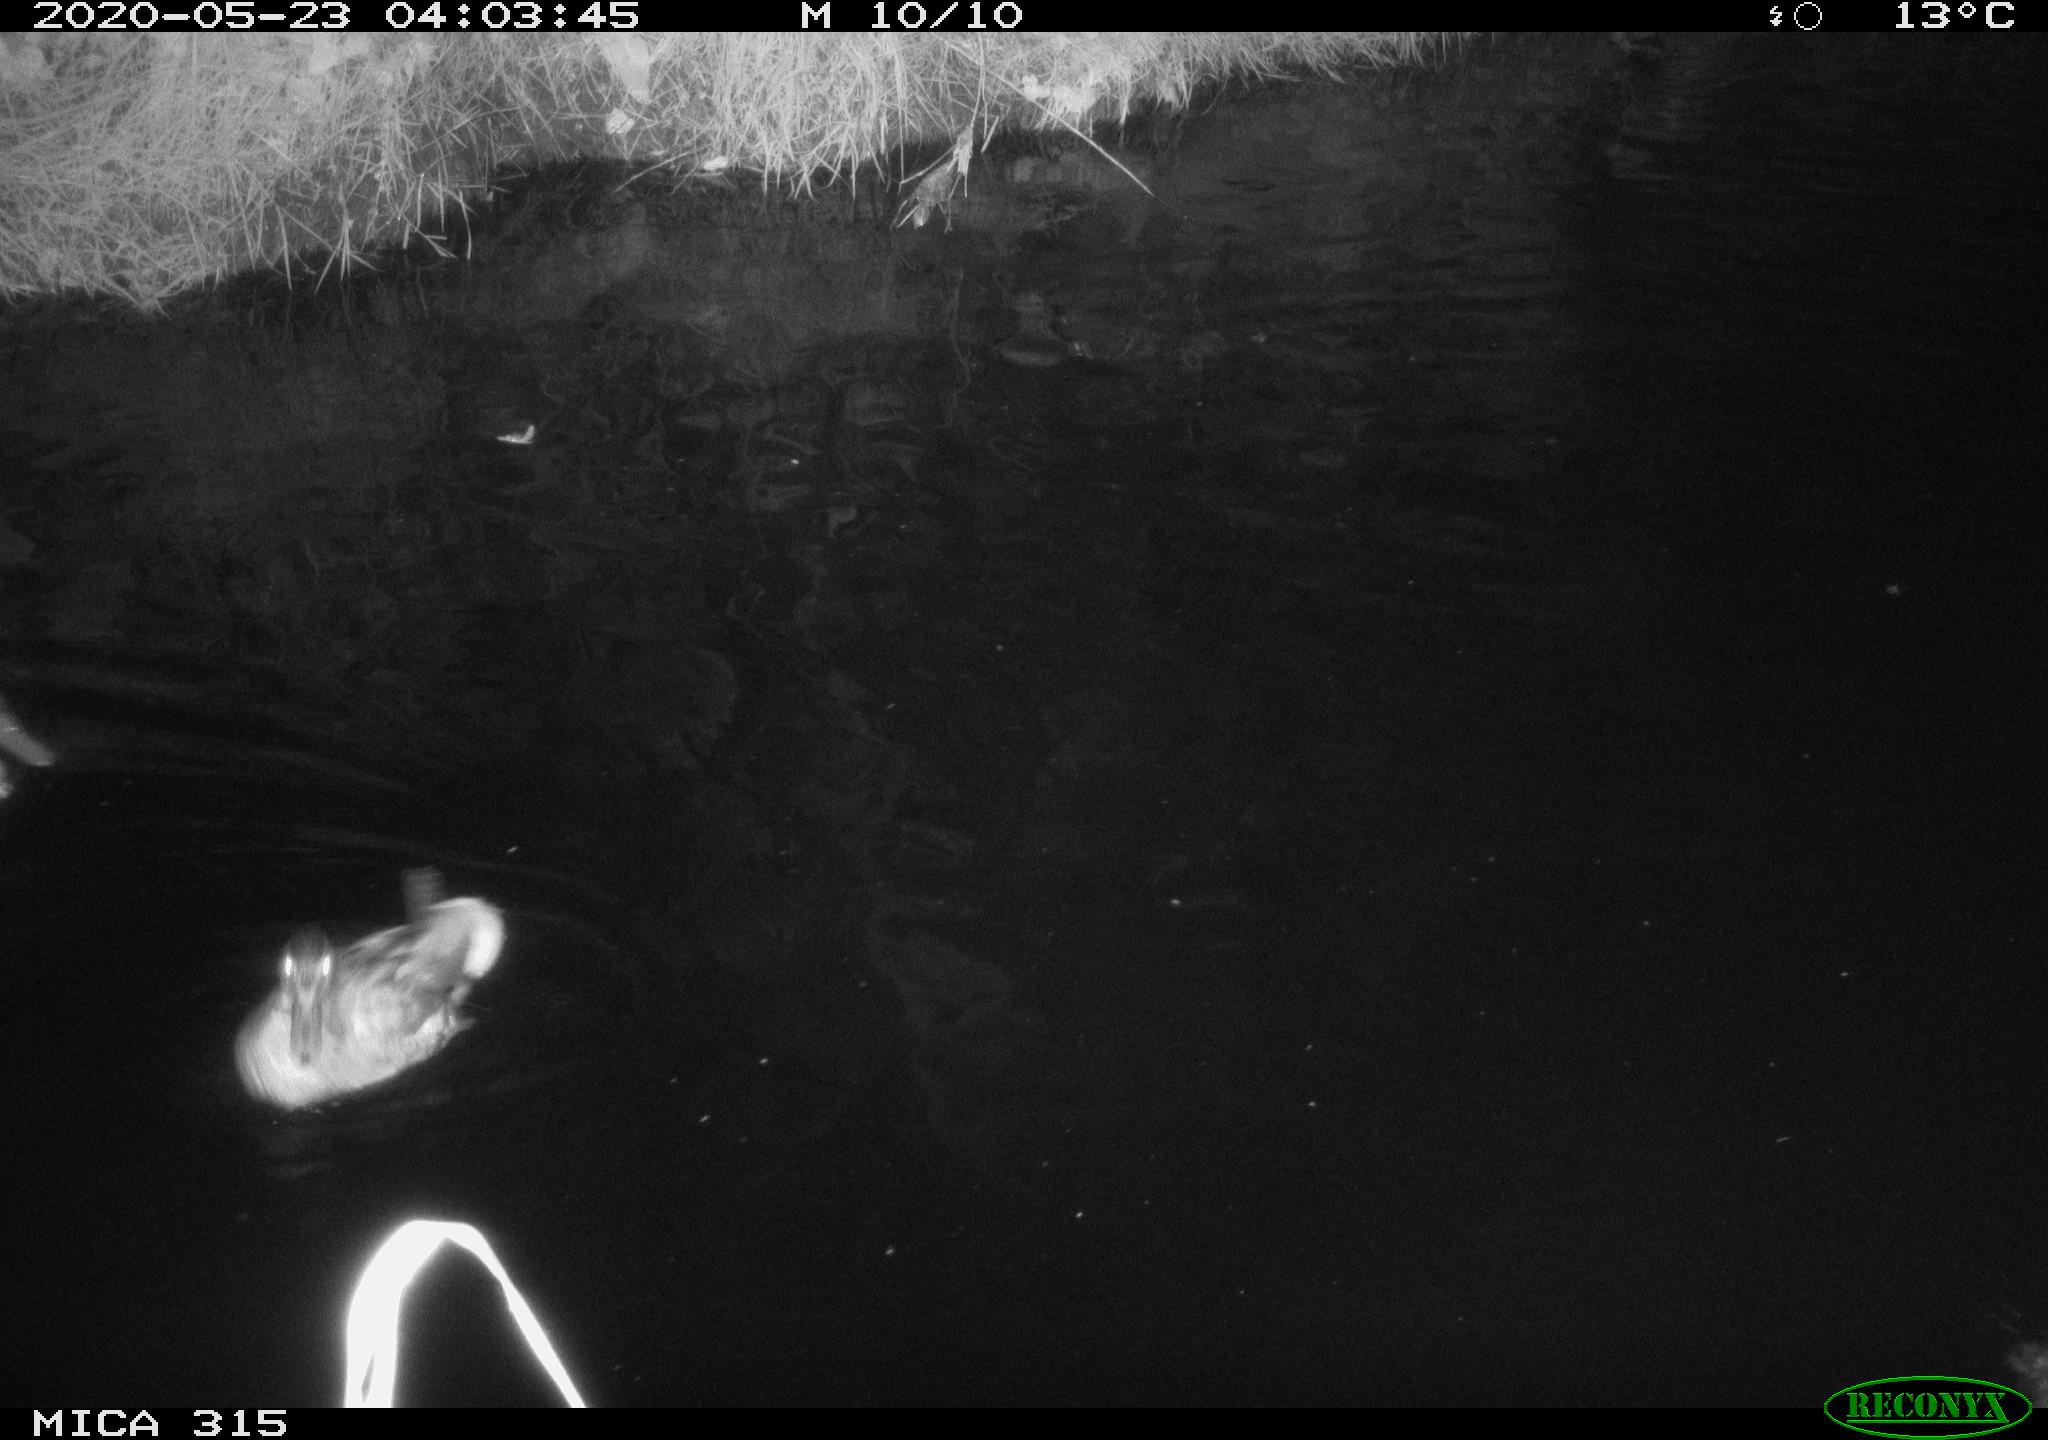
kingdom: Animalia
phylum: Chordata
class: Aves
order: Anseriformes
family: Anatidae
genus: Anas
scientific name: Anas platyrhynchos
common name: Mallard
